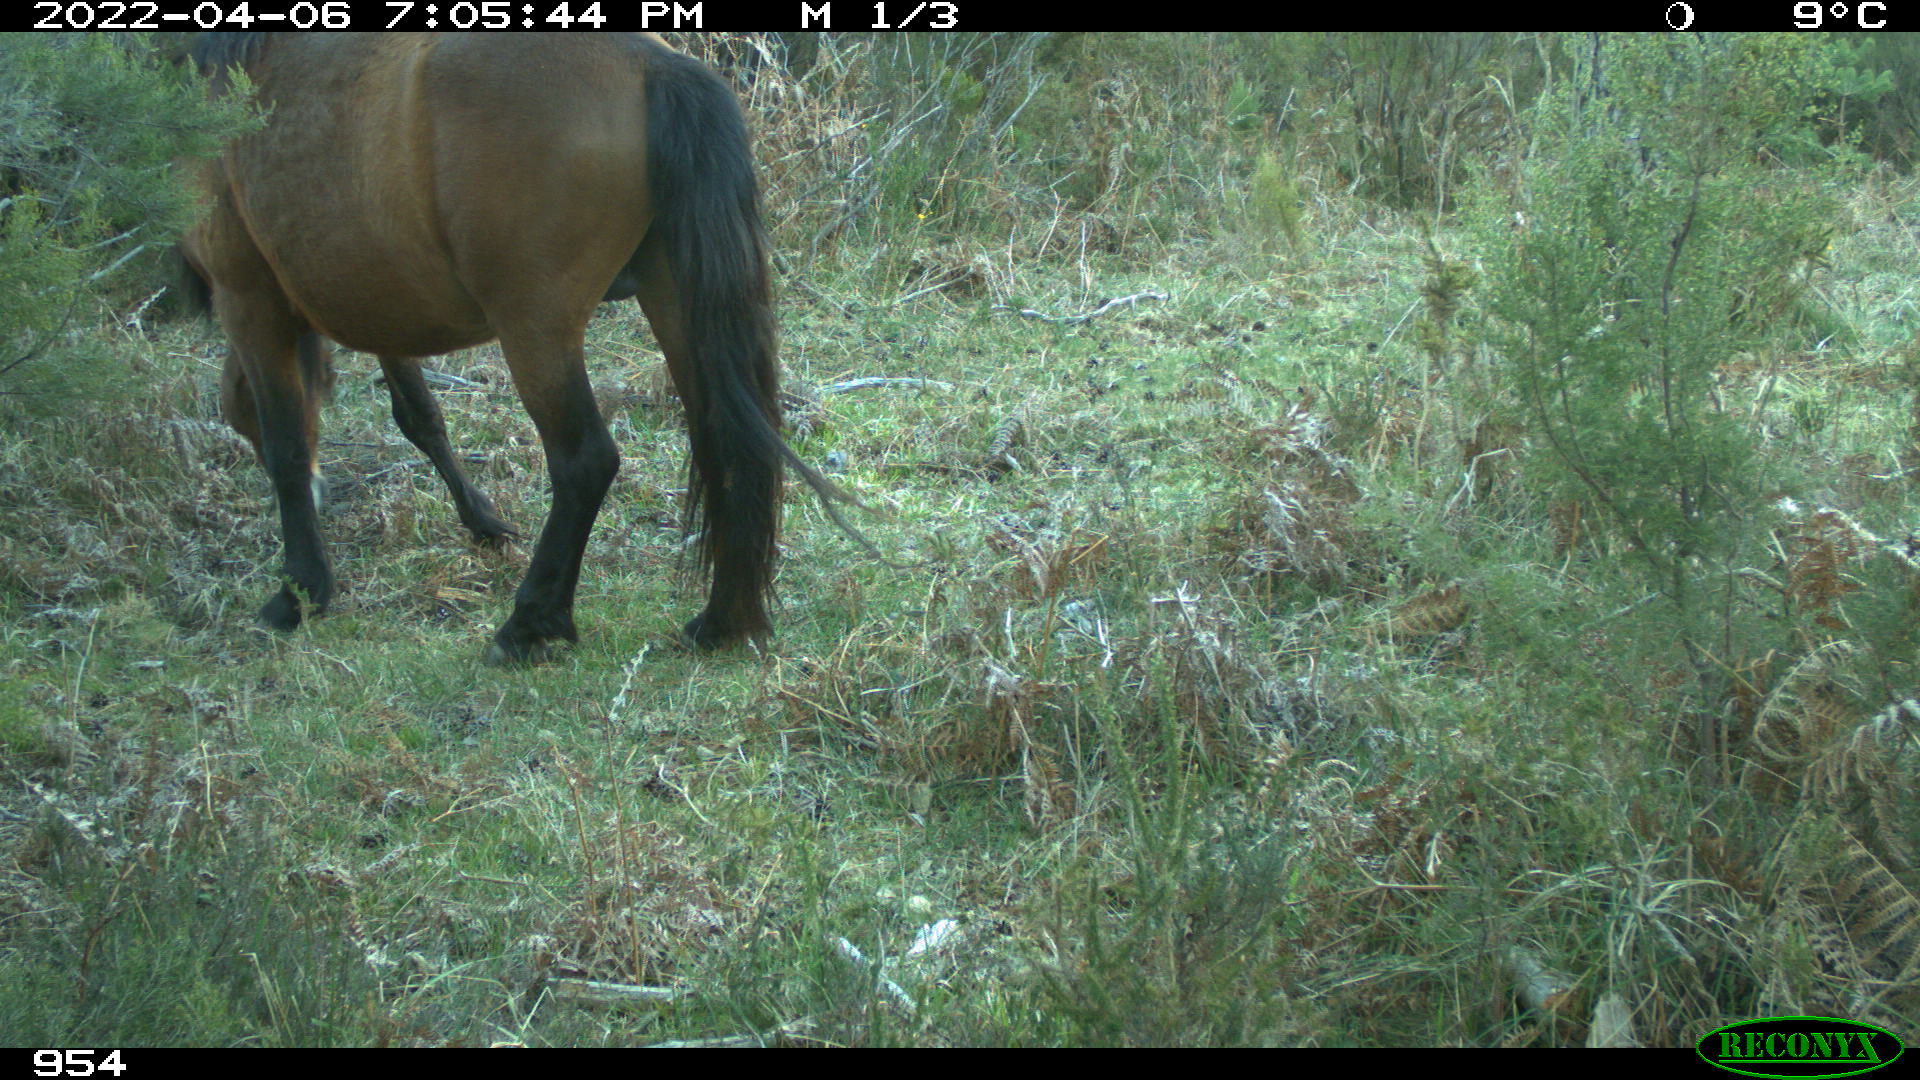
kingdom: Animalia
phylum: Chordata
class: Mammalia
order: Perissodactyla
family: Equidae
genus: Equus
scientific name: Equus caballus
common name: Horse
